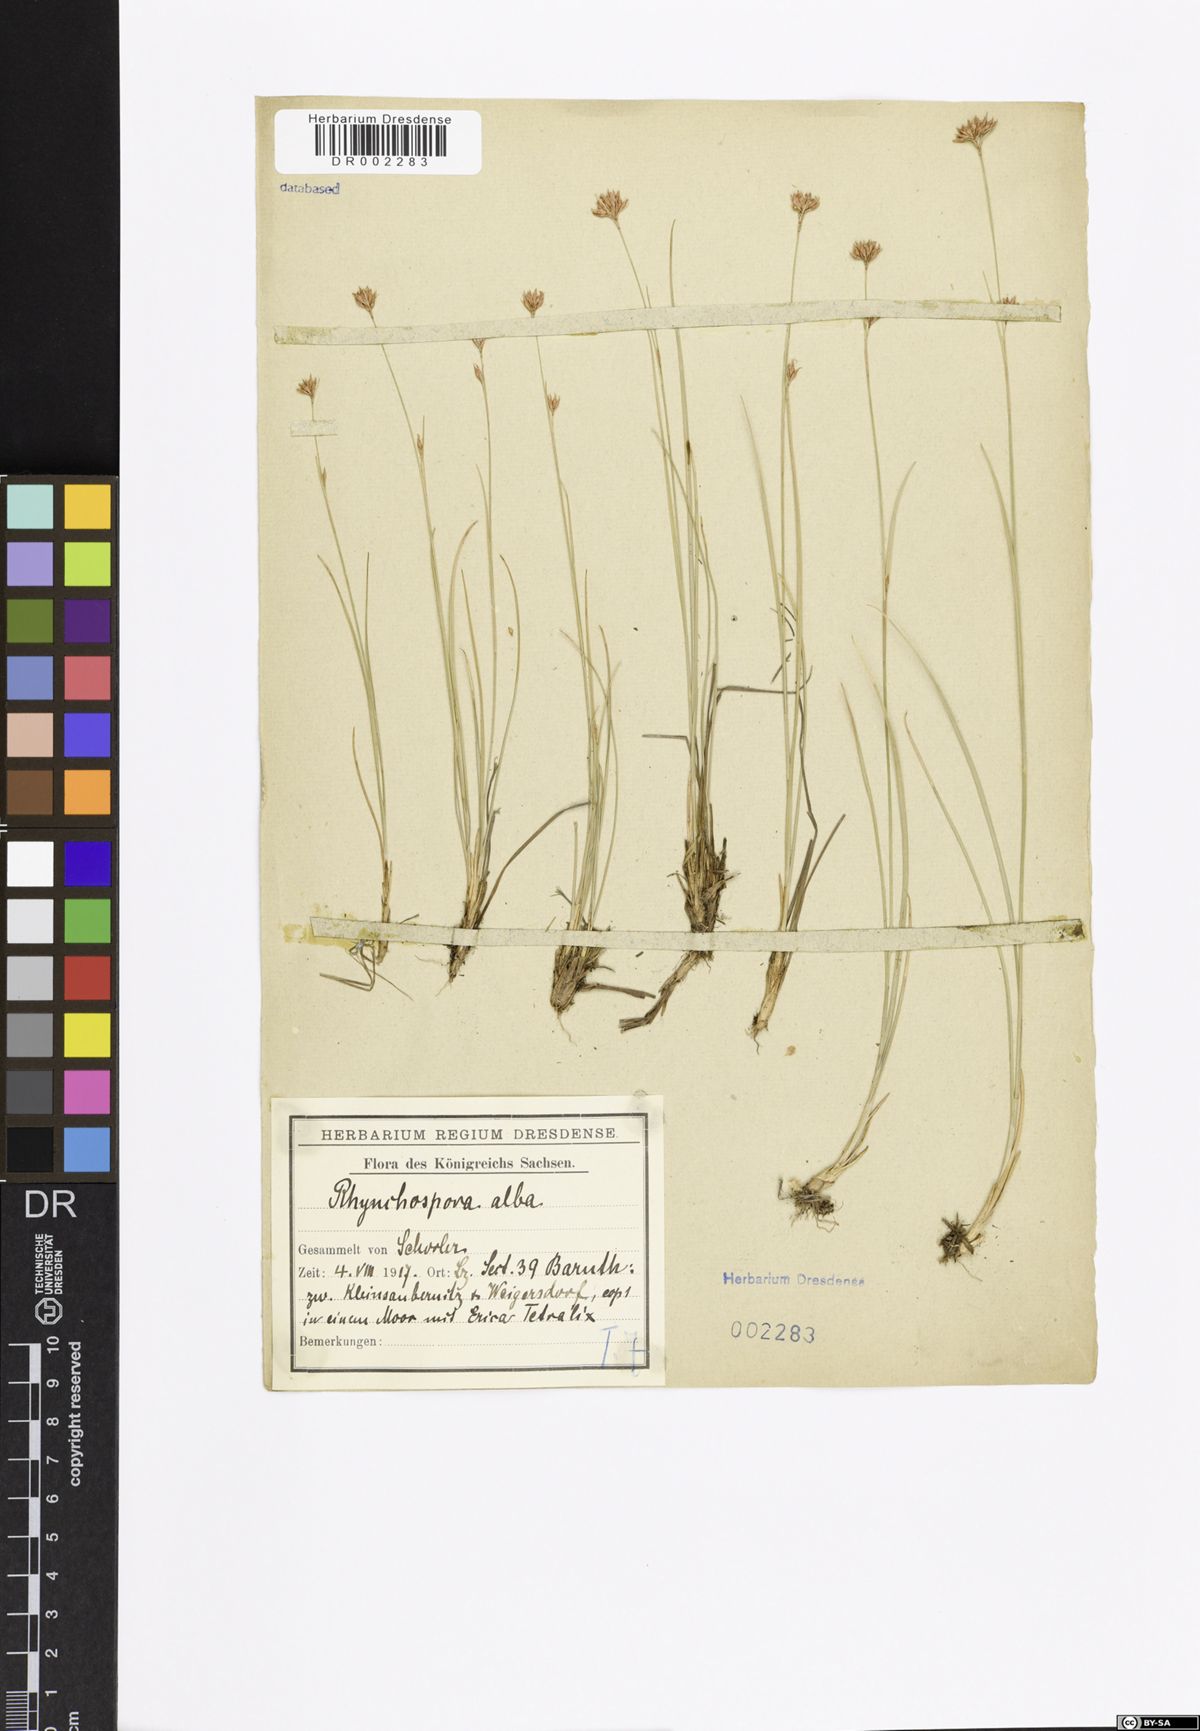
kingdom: Plantae
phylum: Tracheophyta
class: Liliopsida
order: Poales
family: Cyperaceae
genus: Rhynchospora
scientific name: Rhynchospora alba
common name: White beak-sedge
